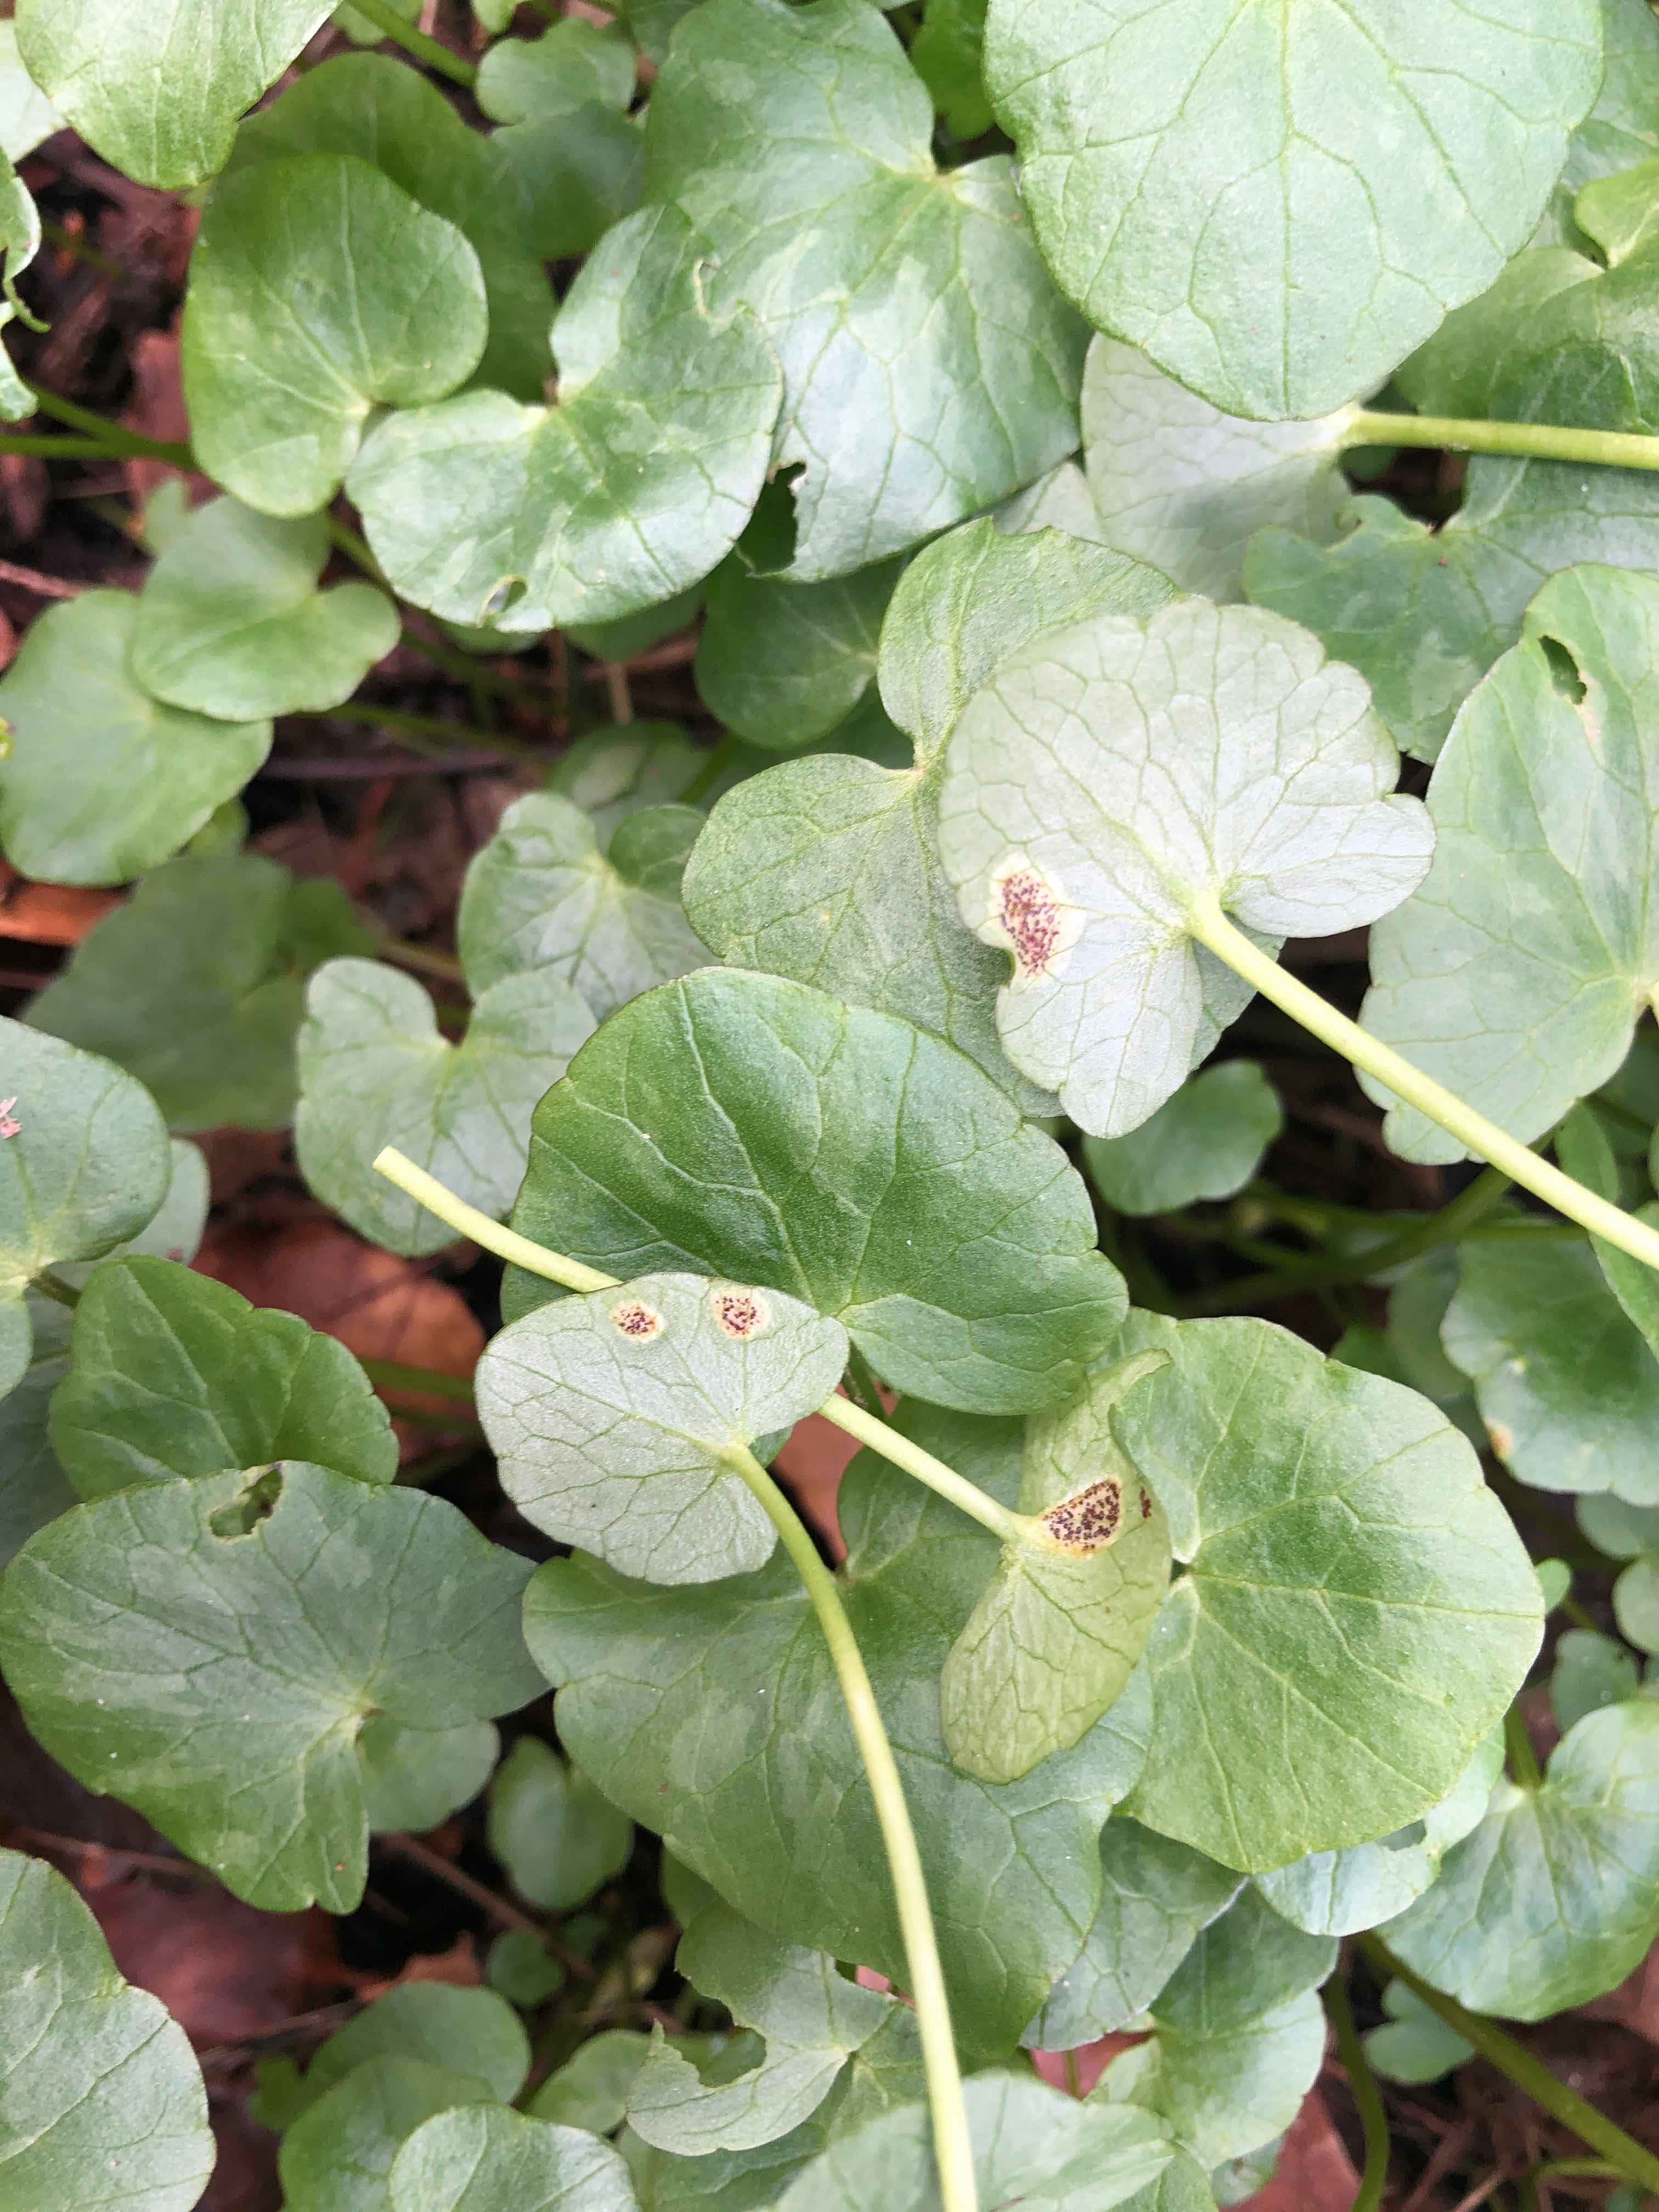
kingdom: Fungi
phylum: Basidiomycota
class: Pucciniomycetes
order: Pucciniales
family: Pucciniaceae
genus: Uromyces
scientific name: Uromyces ficariae
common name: vorterod-encellerust
